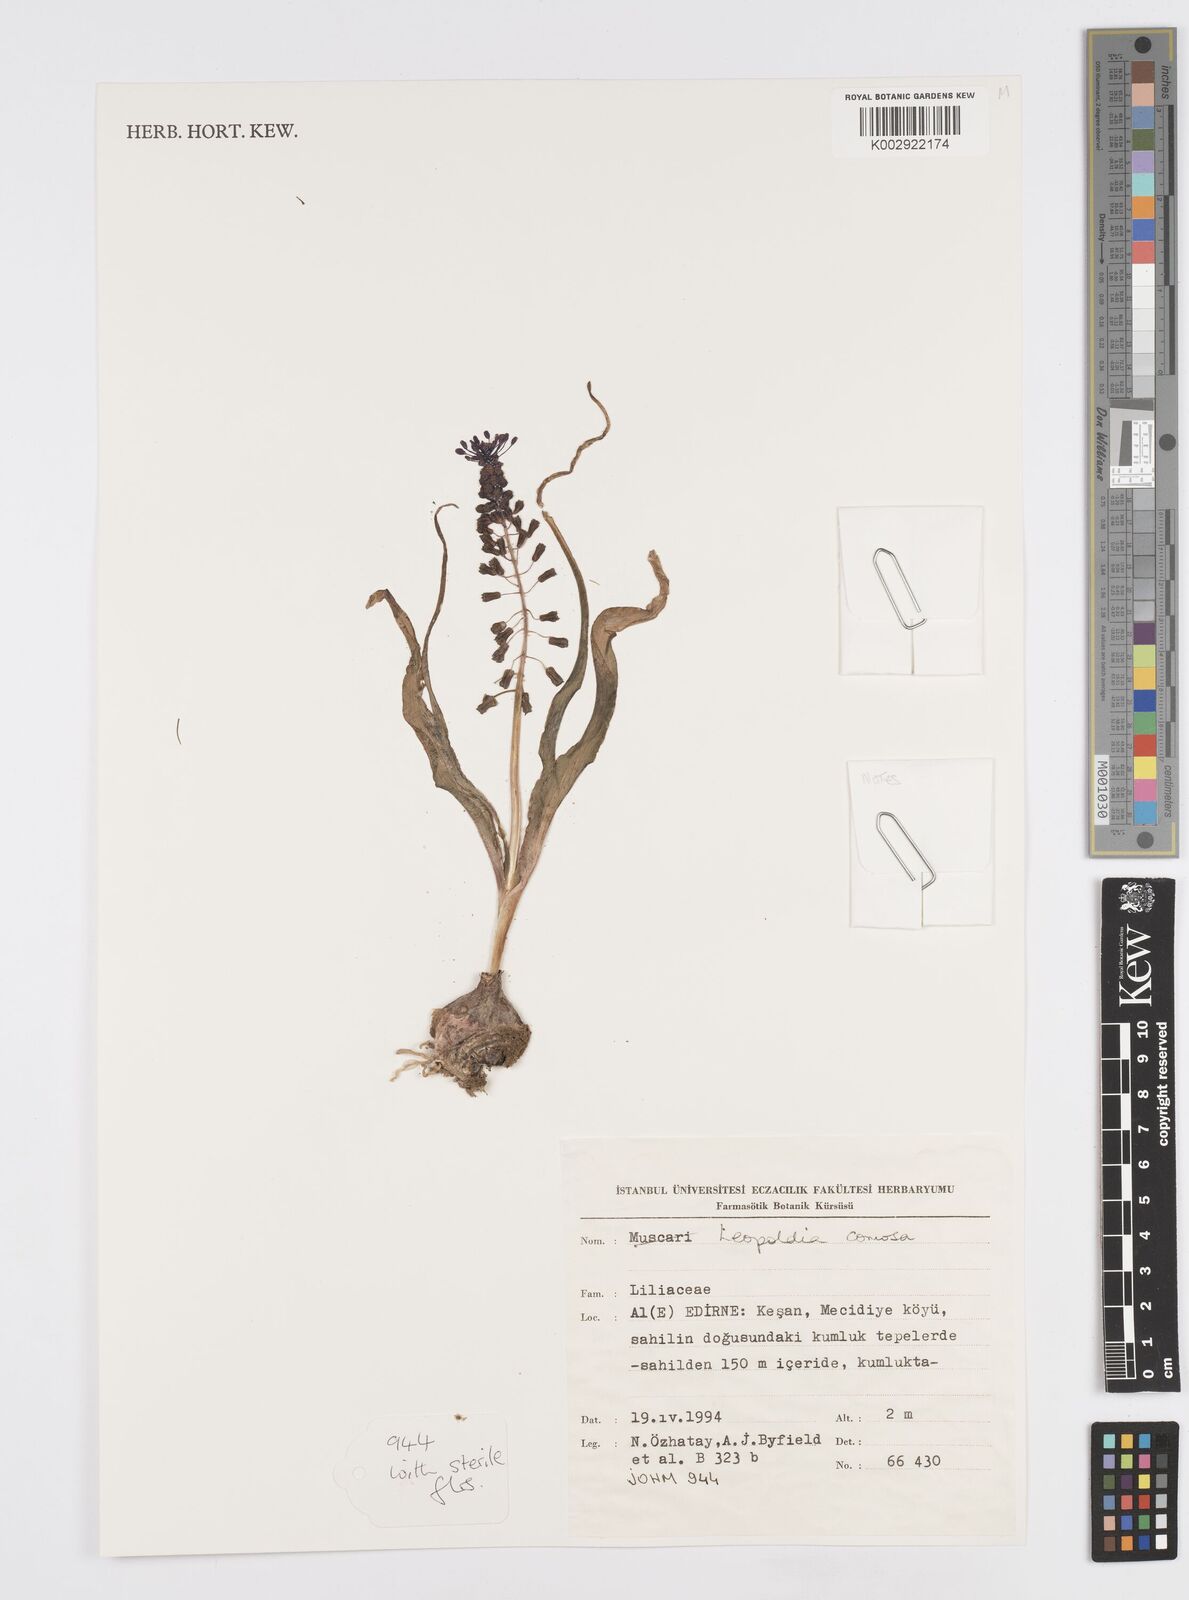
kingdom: Plantae
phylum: Tracheophyta
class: Liliopsida
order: Asparagales
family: Asparagaceae
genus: Muscari
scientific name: Muscari comosum
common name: Tassel hyacinth
